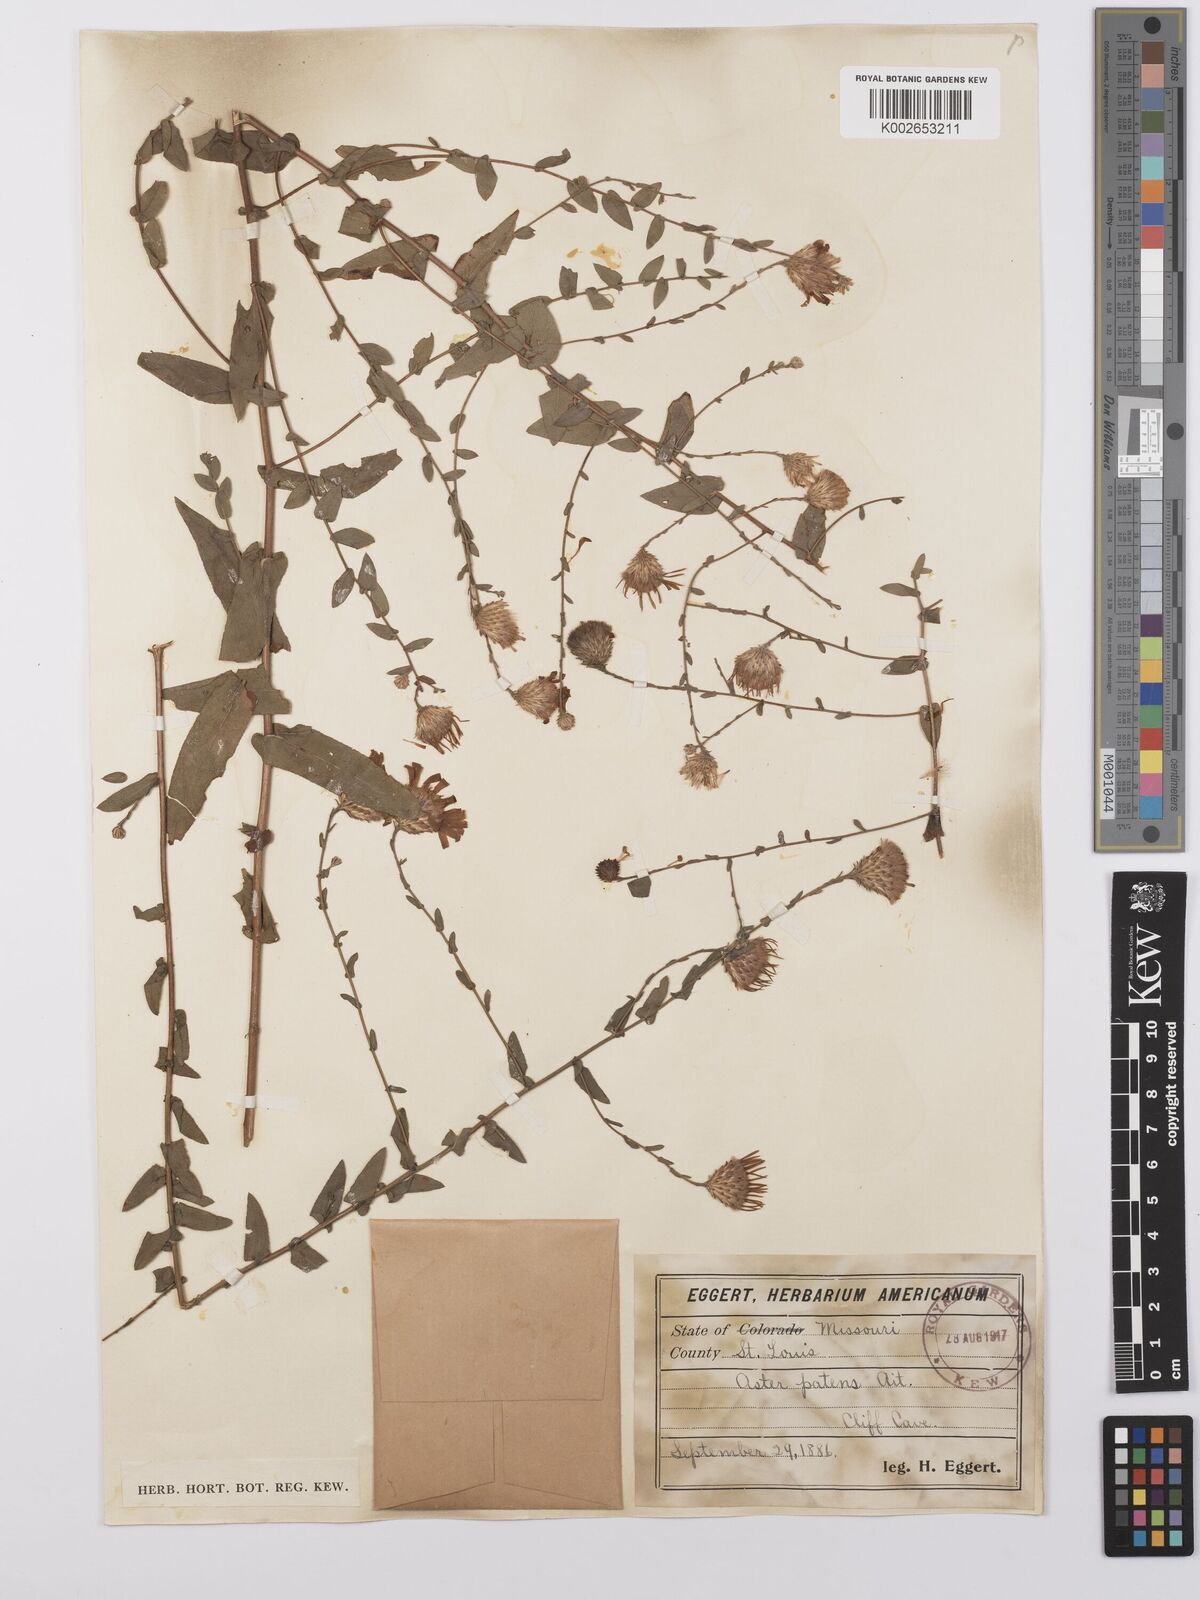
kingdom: Plantae
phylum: Tracheophyta
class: Magnoliopsida
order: Asterales
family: Asteraceae
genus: Symphyotrichum
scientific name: Symphyotrichum patens
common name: Late purple aster
